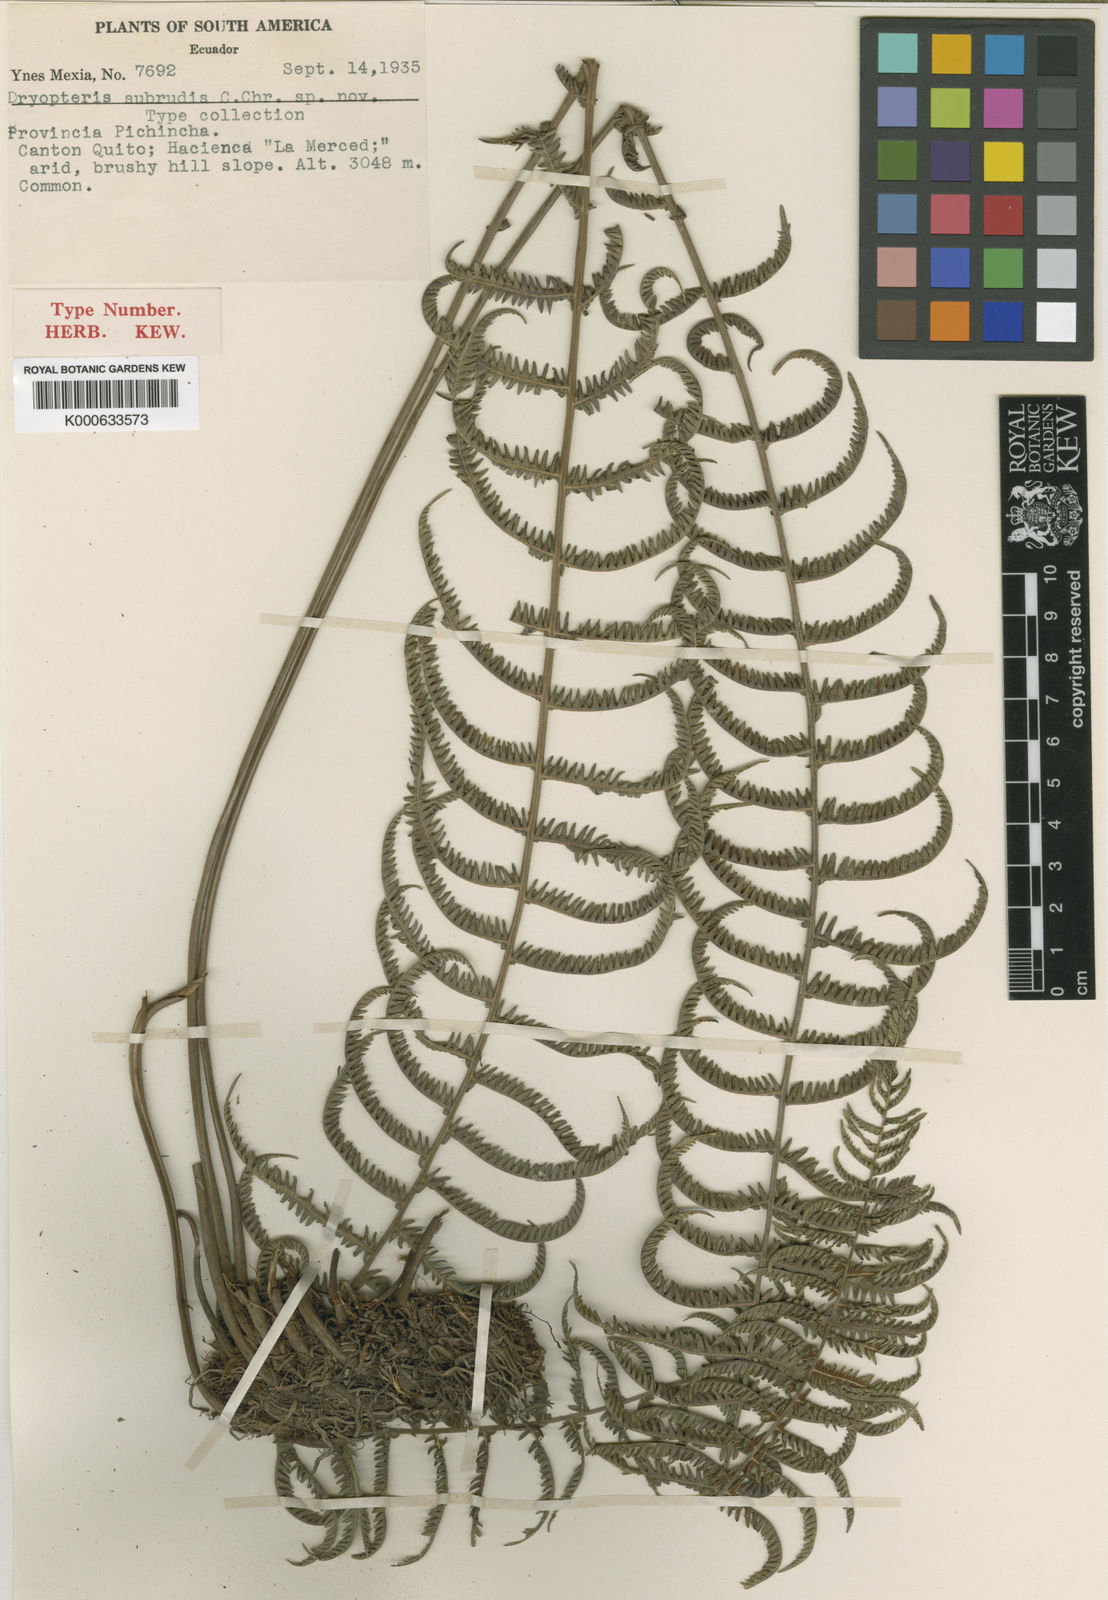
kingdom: Plantae
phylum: Tracheophyta
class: Polypodiopsida
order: Polypodiales
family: Thelypteridaceae
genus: Amauropelta
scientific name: Amauropelta
